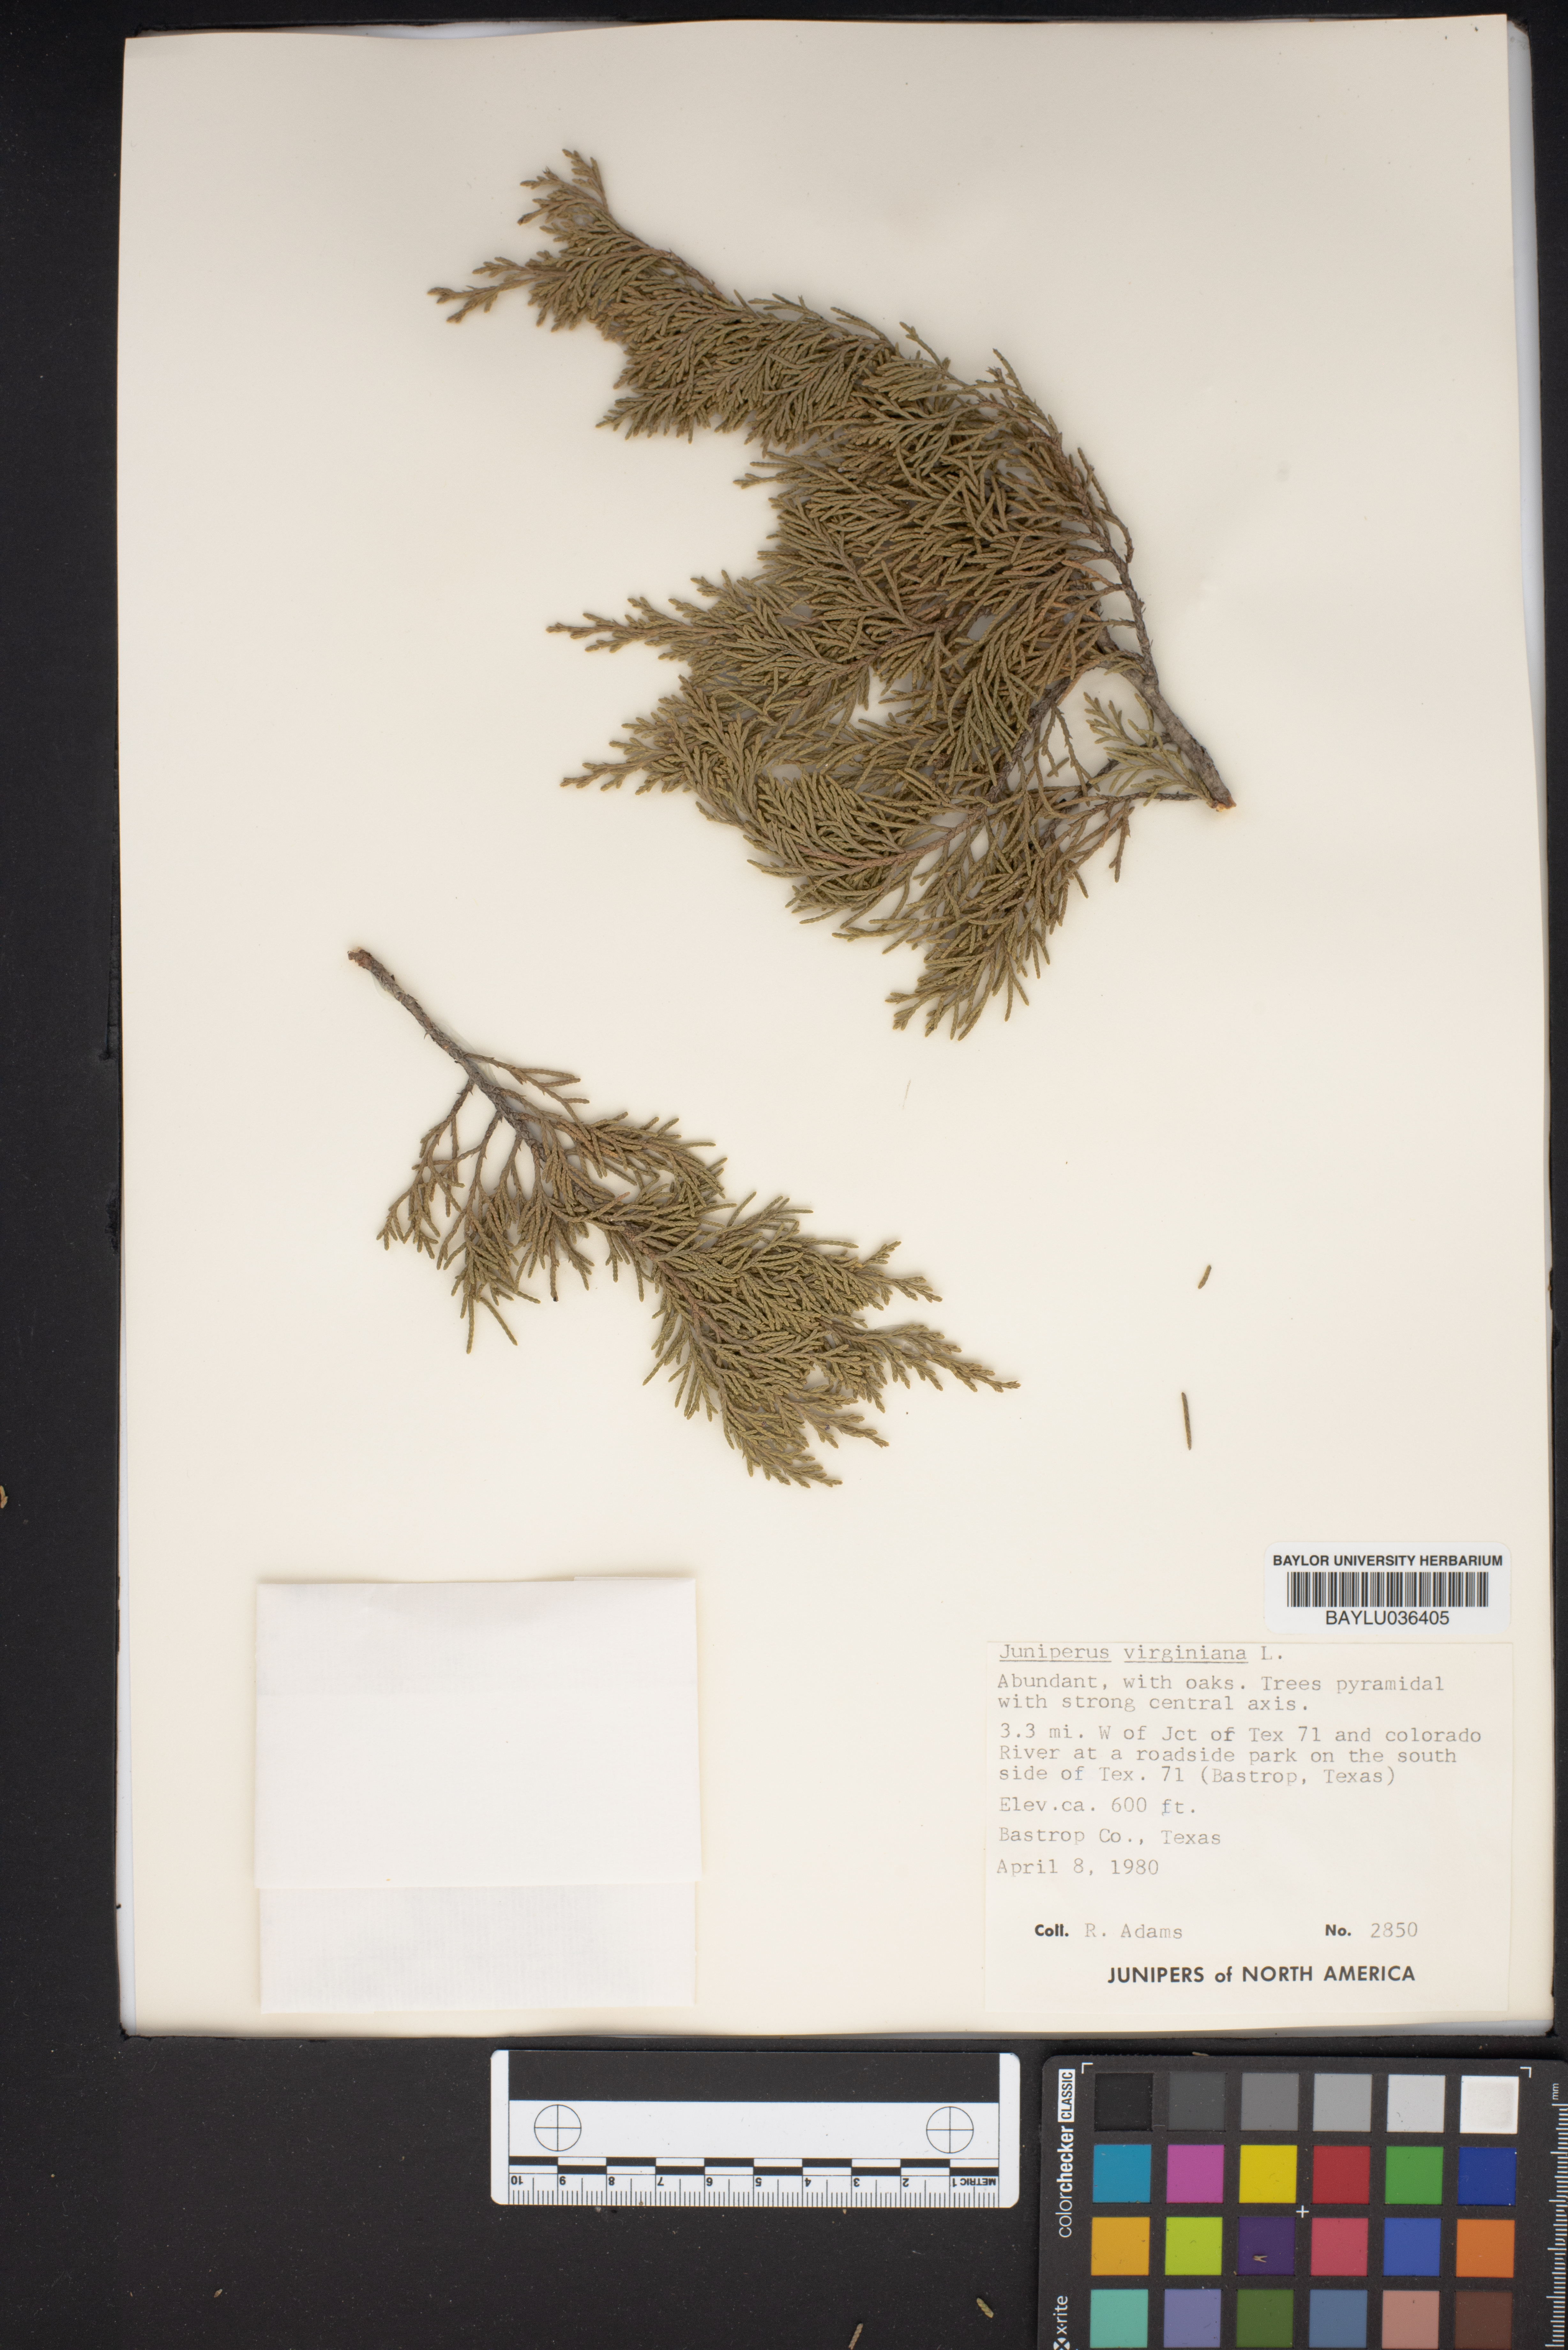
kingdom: Plantae
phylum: Tracheophyta
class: Pinopsida
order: Pinales
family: Cupressaceae
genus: Juniperus
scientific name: Juniperus virginiana
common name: Red juniper
